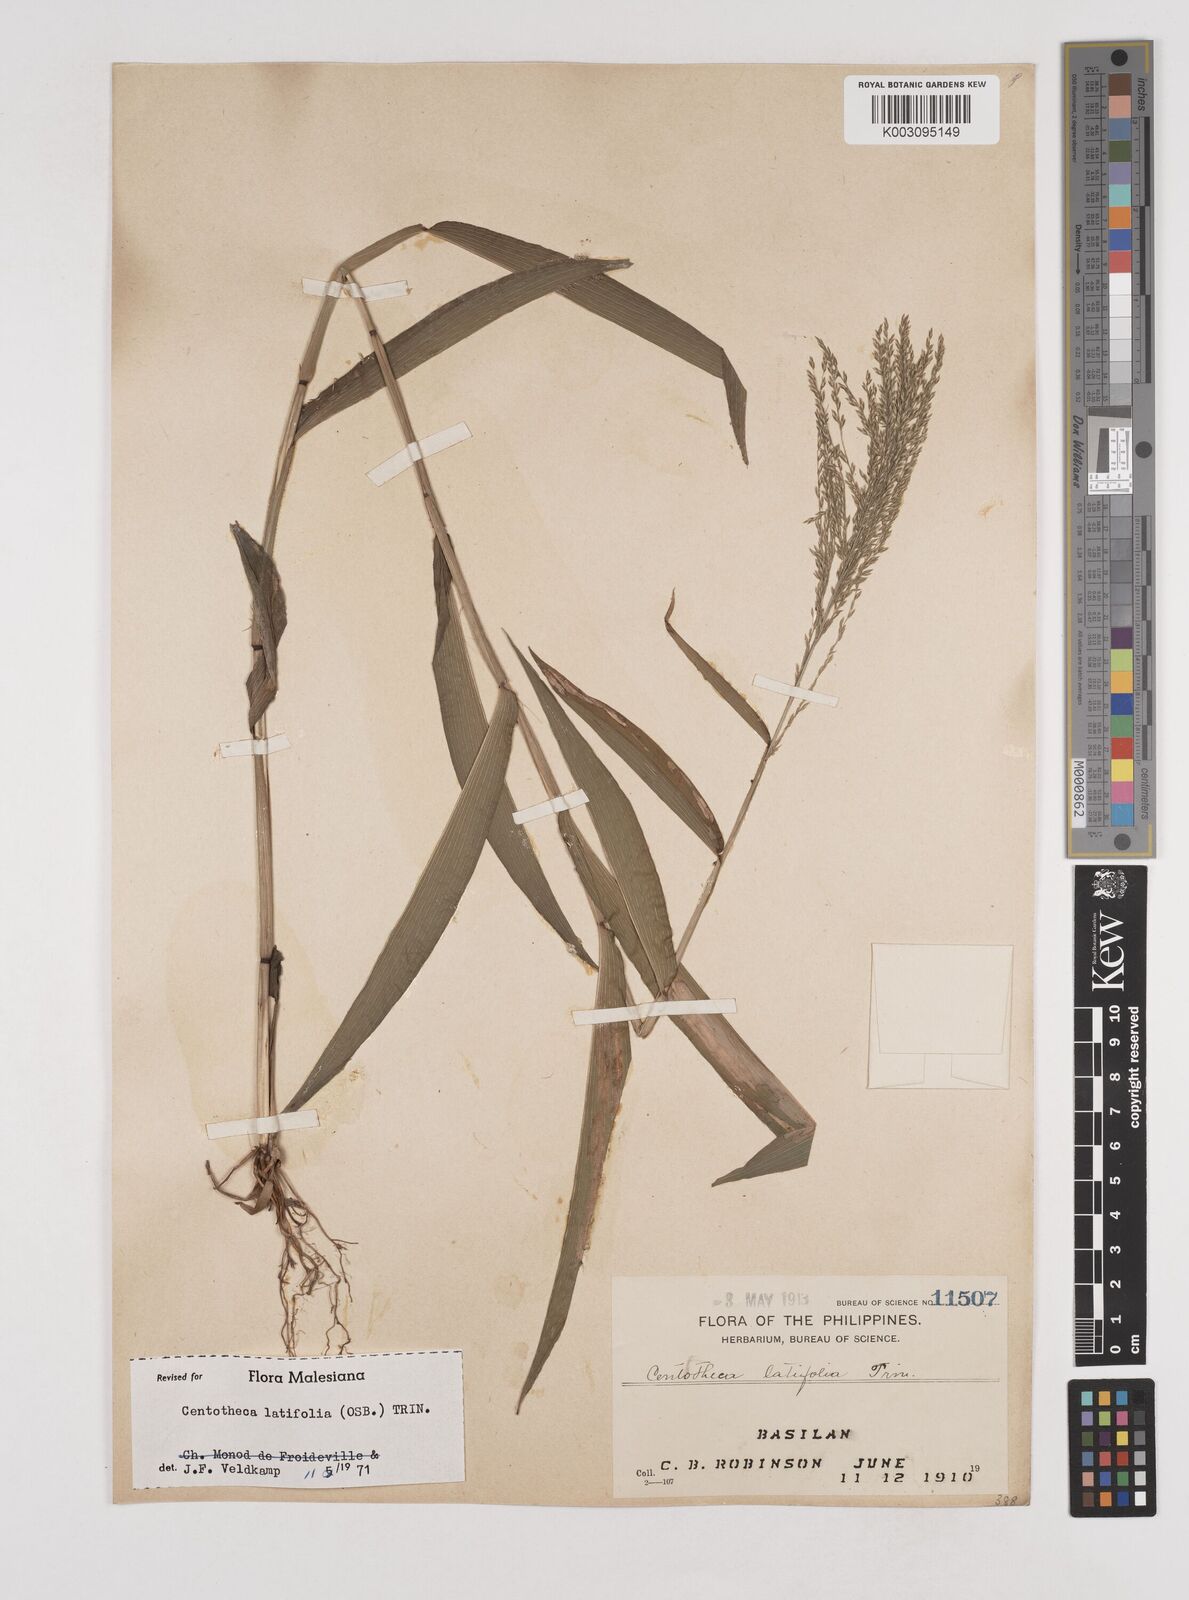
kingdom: Plantae
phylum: Tracheophyta
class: Liliopsida
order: Poales
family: Poaceae
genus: Centotheca
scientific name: Centotheca lappacea
